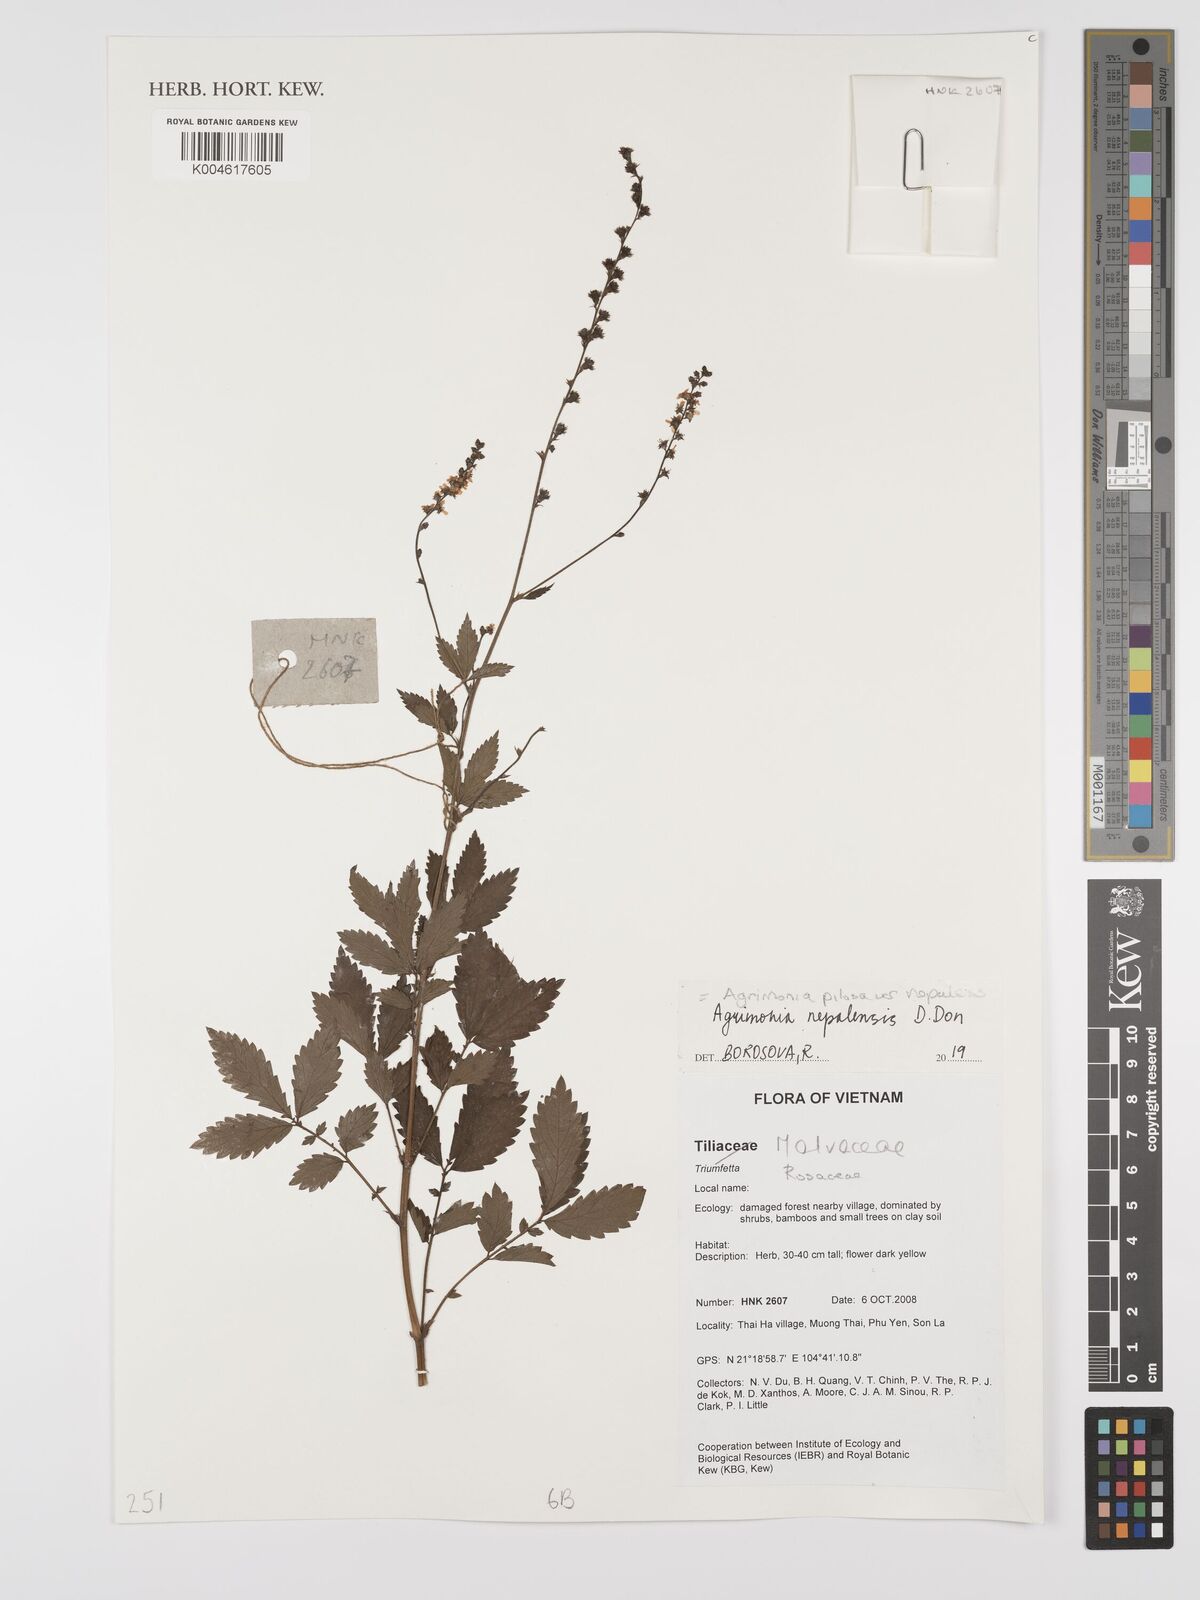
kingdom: Plantae
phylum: Tracheophyta
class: Magnoliopsida
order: Rosales
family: Rosaceae
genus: Agrimonia
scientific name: Agrimonia pilosa
